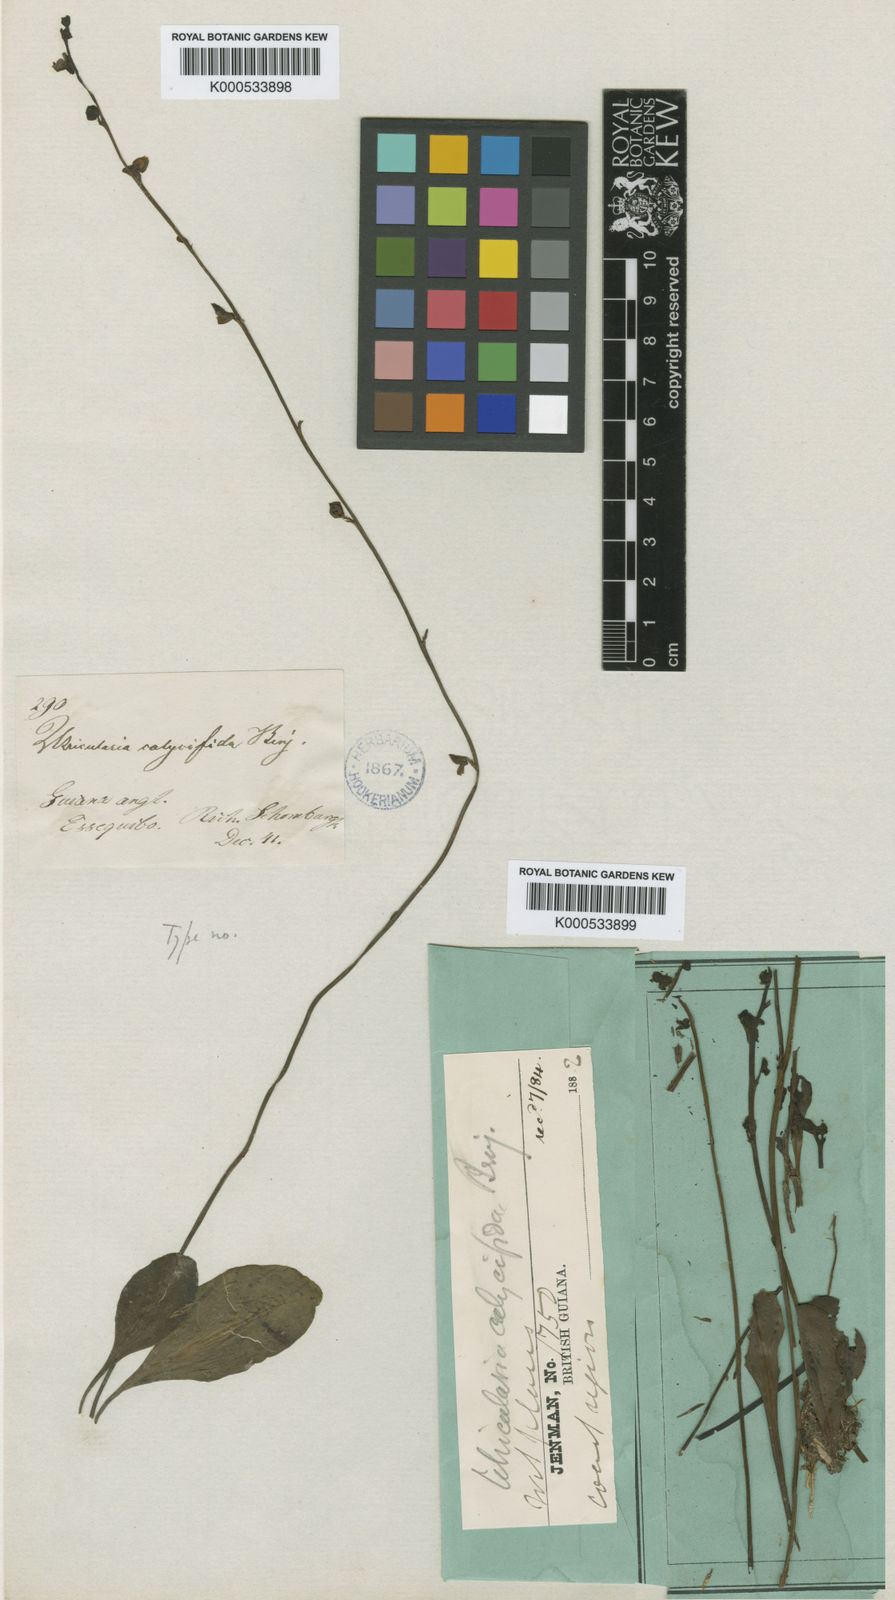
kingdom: Plantae
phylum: Tracheophyta
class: Magnoliopsida
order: Lamiales
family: Lentibulariaceae
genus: Utricularia
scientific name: Utricularia calycifida
